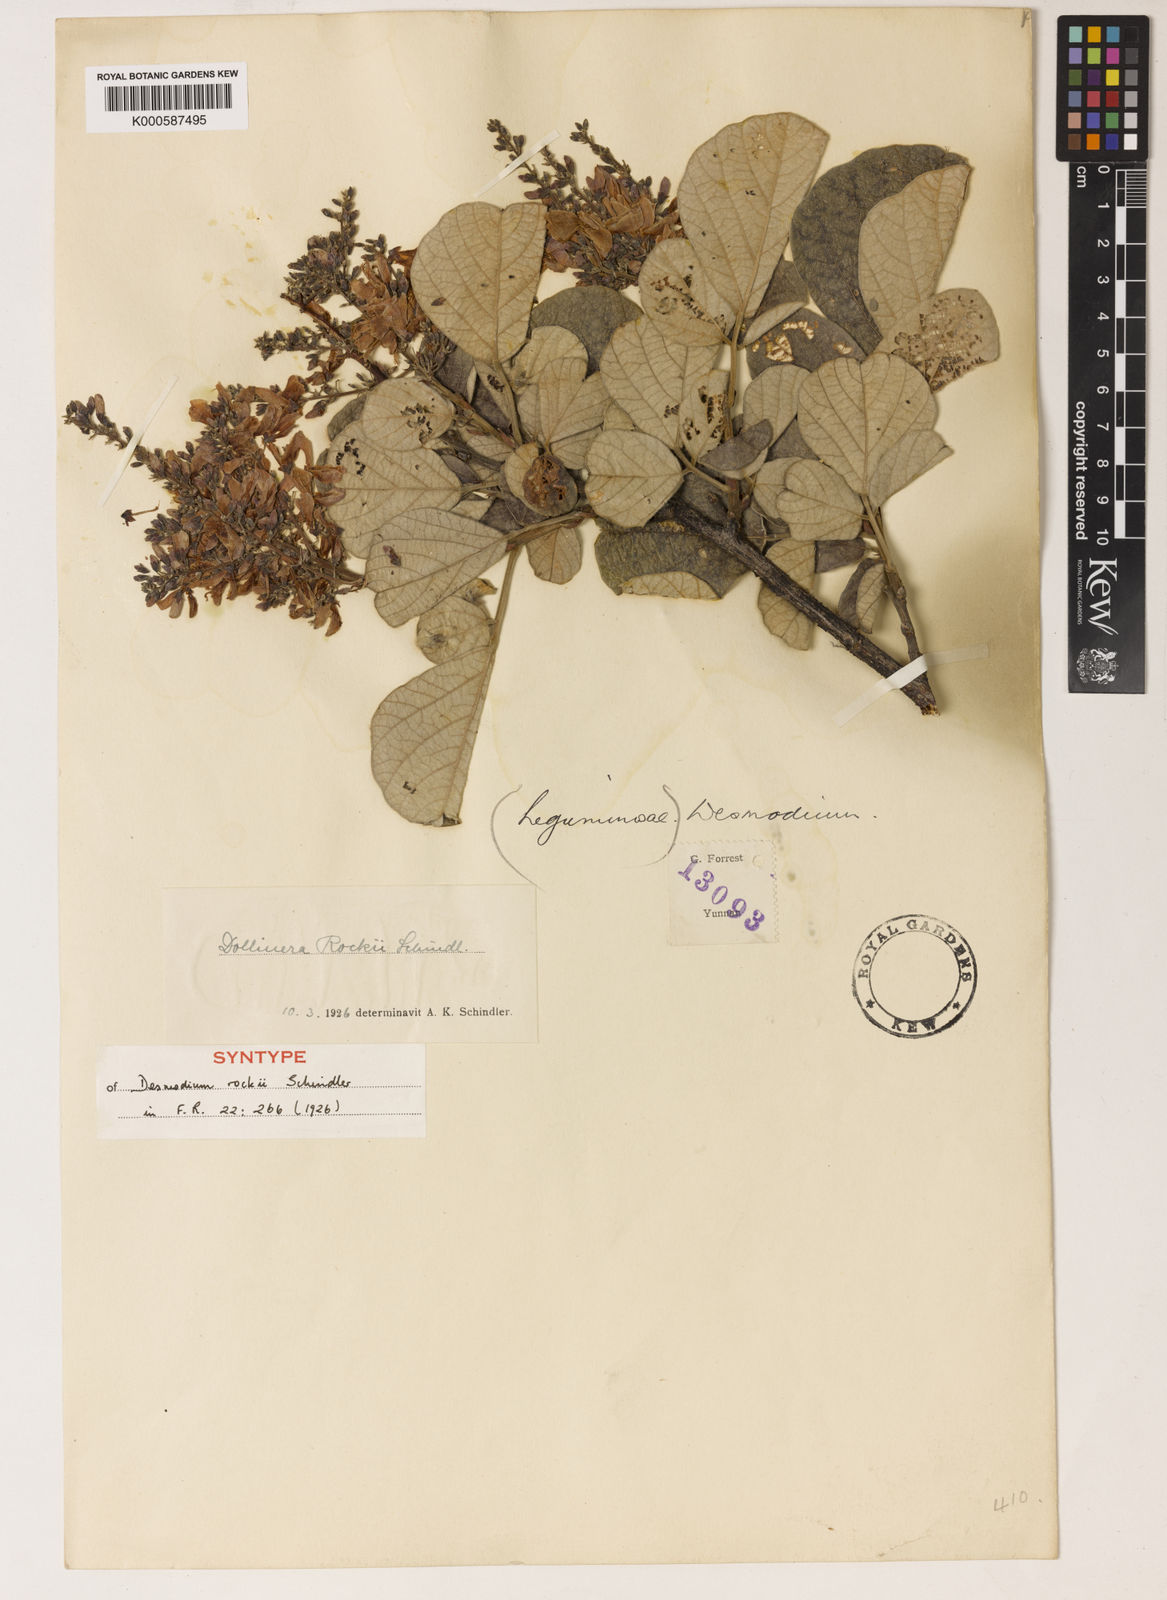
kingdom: Plantae
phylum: Tracheophyta
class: Magnoliopsida
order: Fabales
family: Fabaceae
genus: Sunhangia
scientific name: Sunhangia yunnanensis
